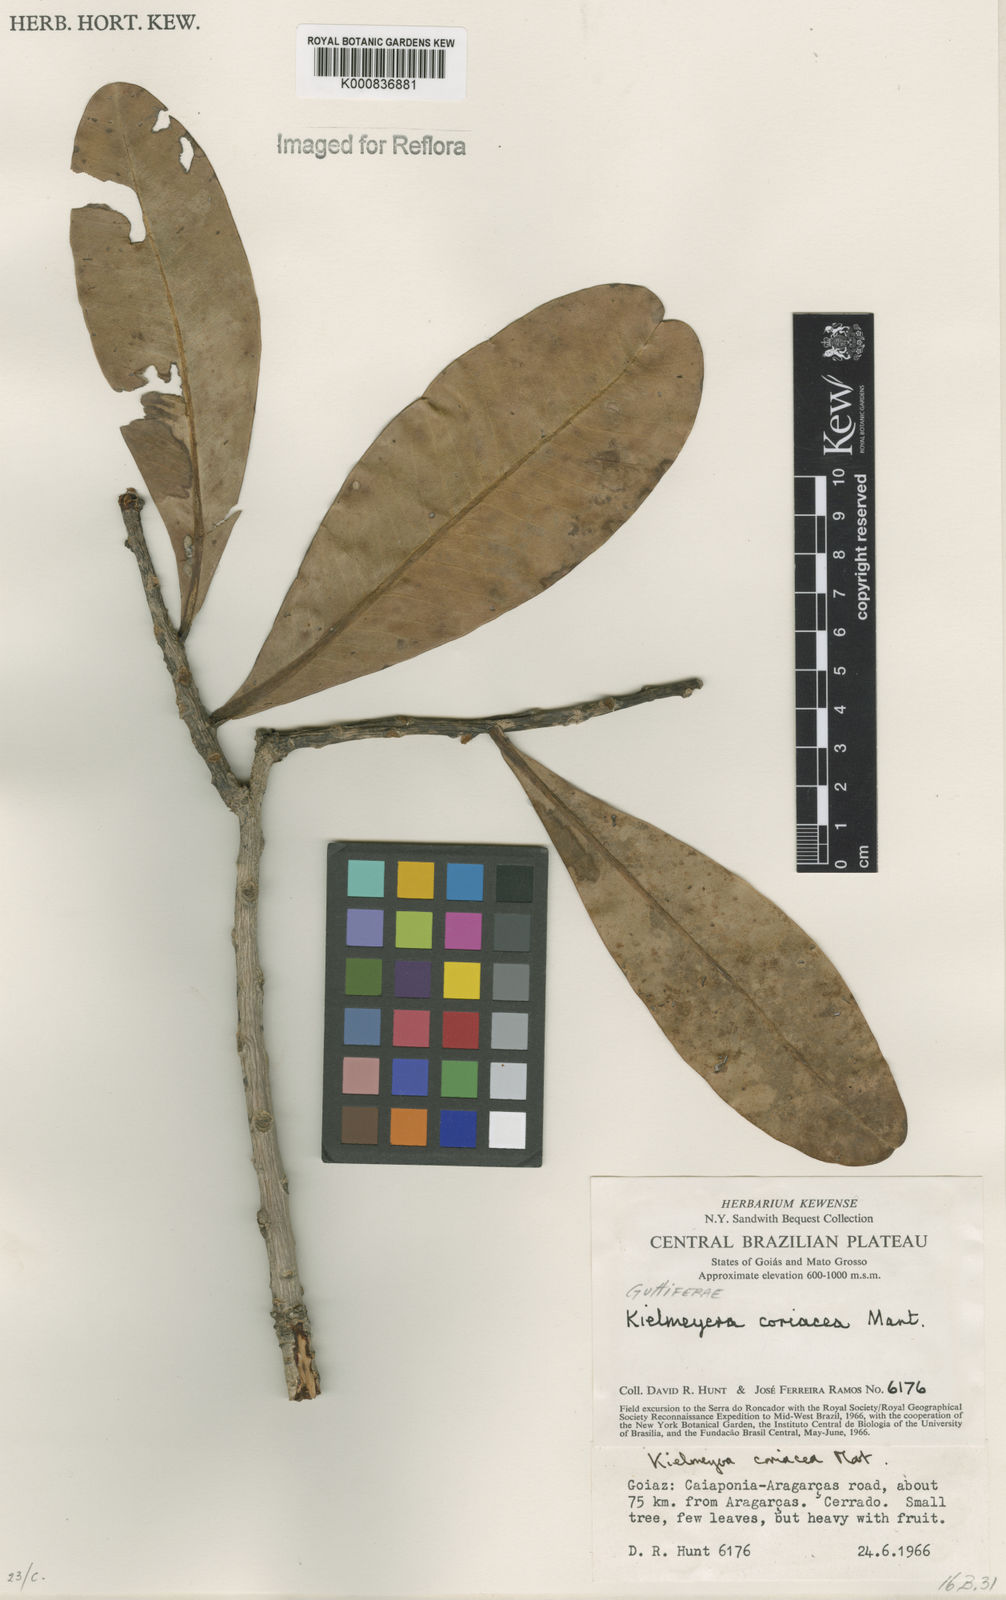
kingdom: Plantae
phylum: Tracheophyta
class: Magnoliopsida
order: Malpighiales
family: Calophyllaceae
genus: Kielmeyera
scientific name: Kielmeyera coriacea
